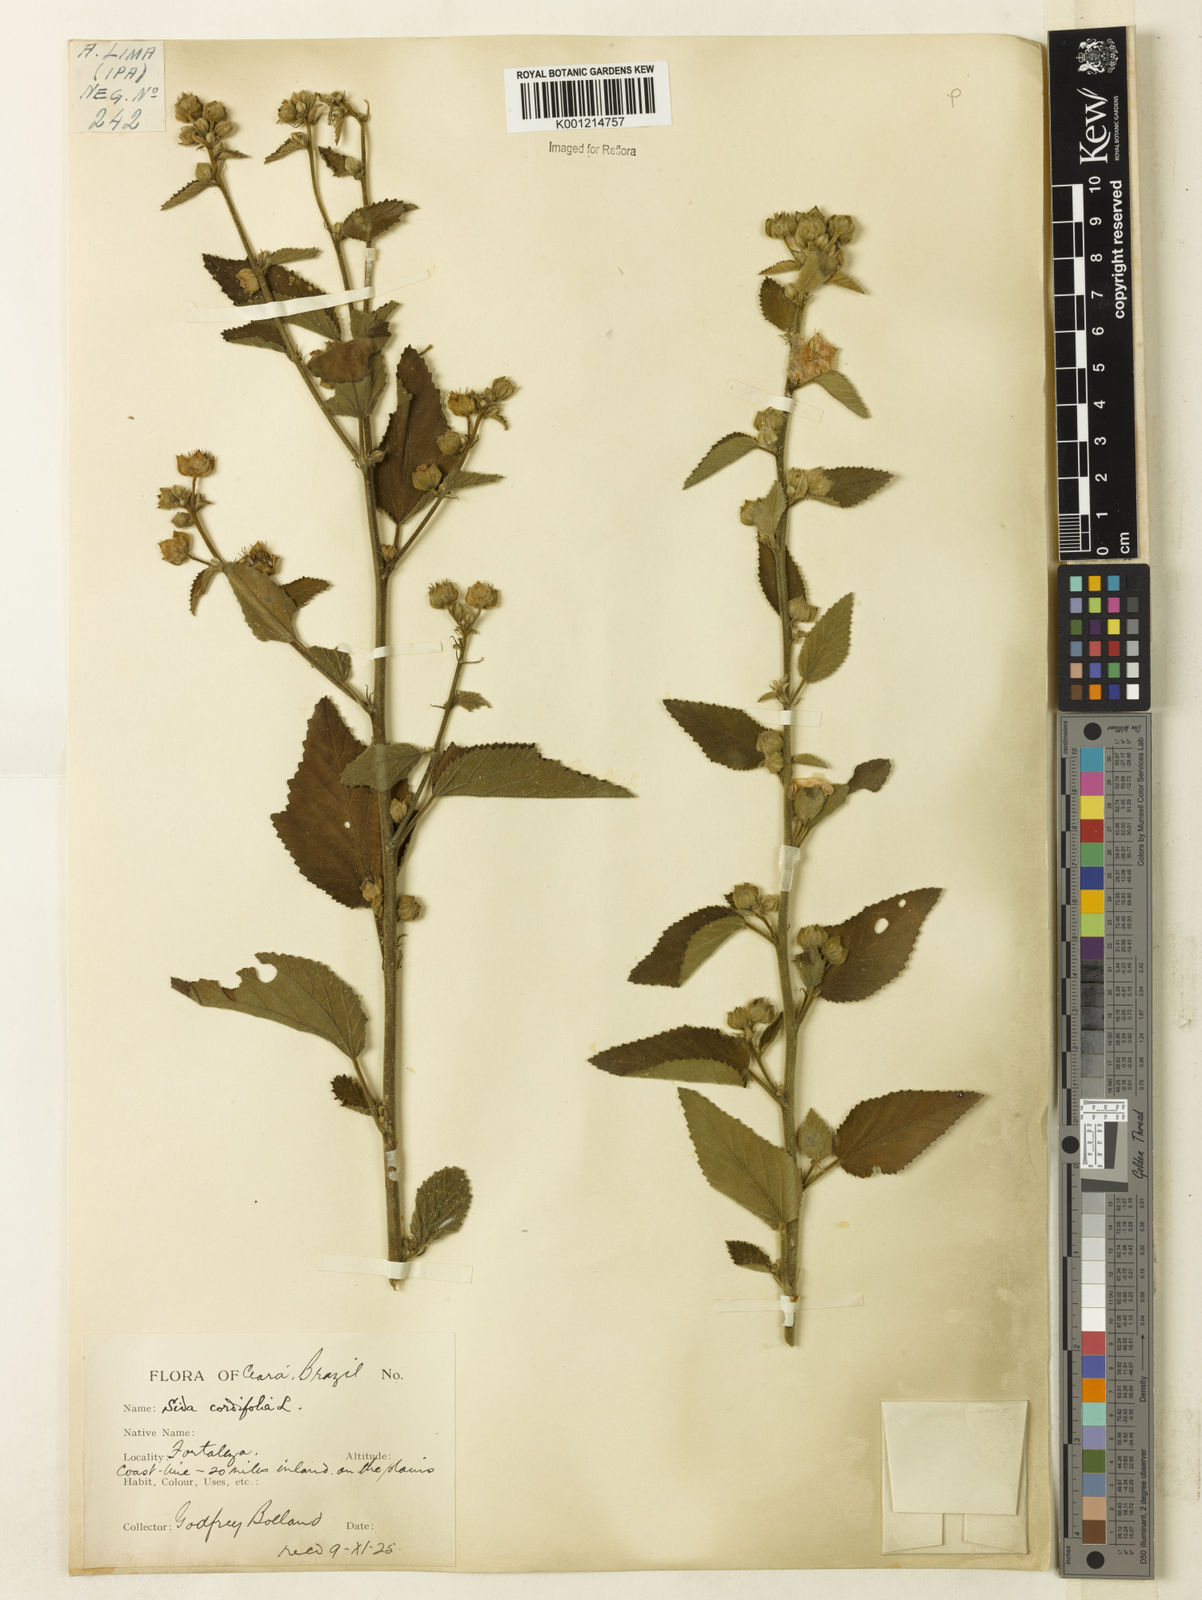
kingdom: Plantae
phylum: Tracheophyta
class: Magnoliopsida
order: Malvales
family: Malvaceae
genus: Sida
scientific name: Sida cordifolia
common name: Ilima
